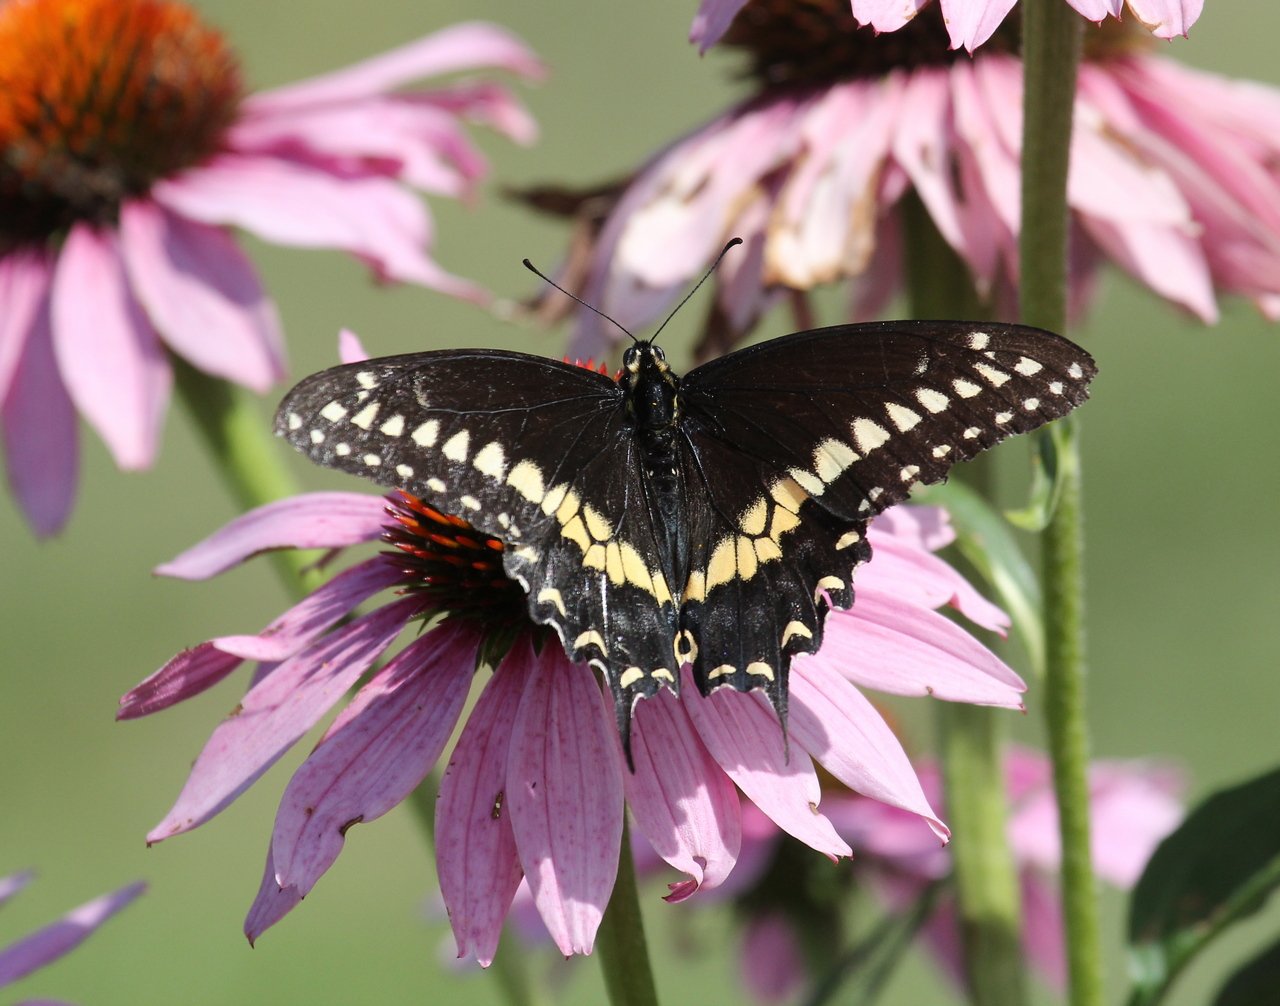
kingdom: Animalia
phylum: Arthropoda
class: Insecta
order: Lepidoptera
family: Papilionidae
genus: Papilio
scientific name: Papilio polyxenes
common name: Black Swallowtail
